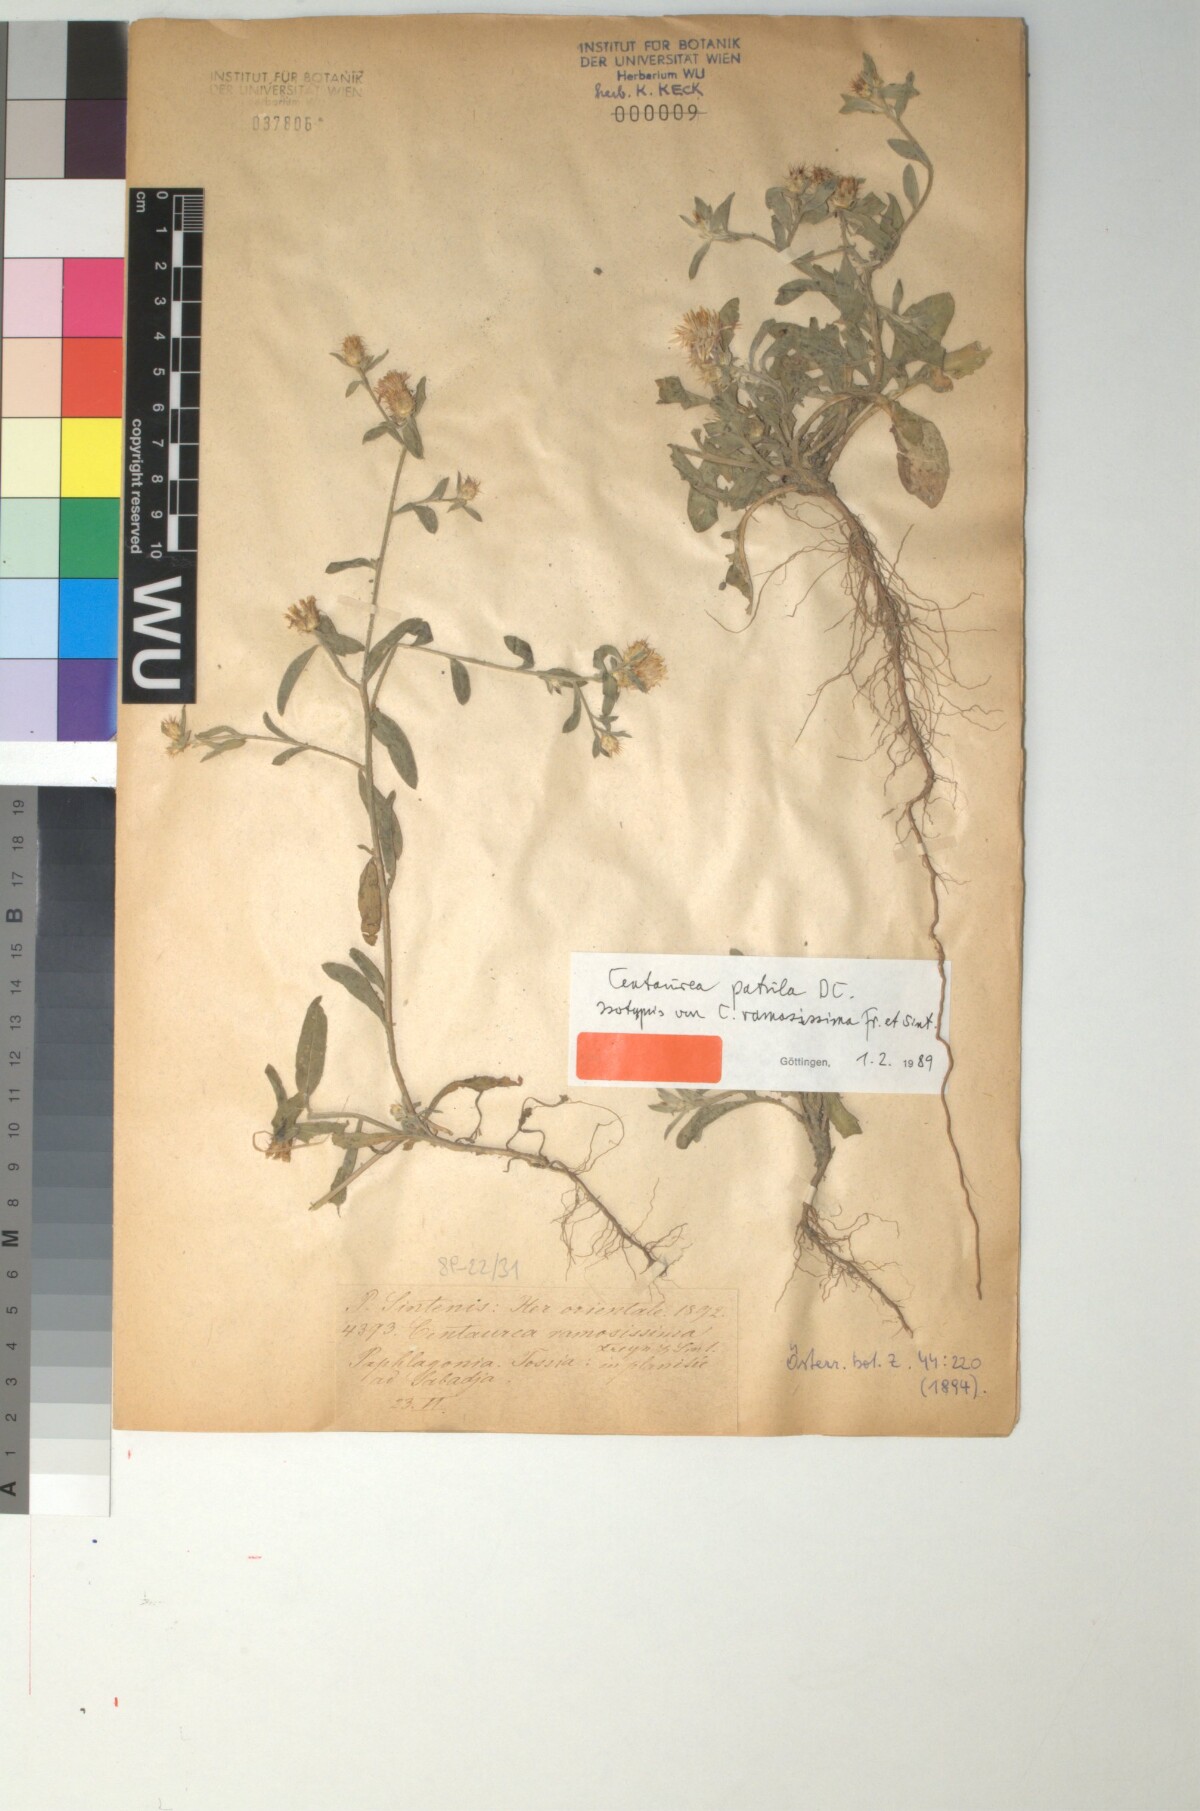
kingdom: Plantae
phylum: Tracheophyta
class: Magnoliopsida
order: Asterales
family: Asteraceae
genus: Callicephalus
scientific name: Callicephalus nitens
